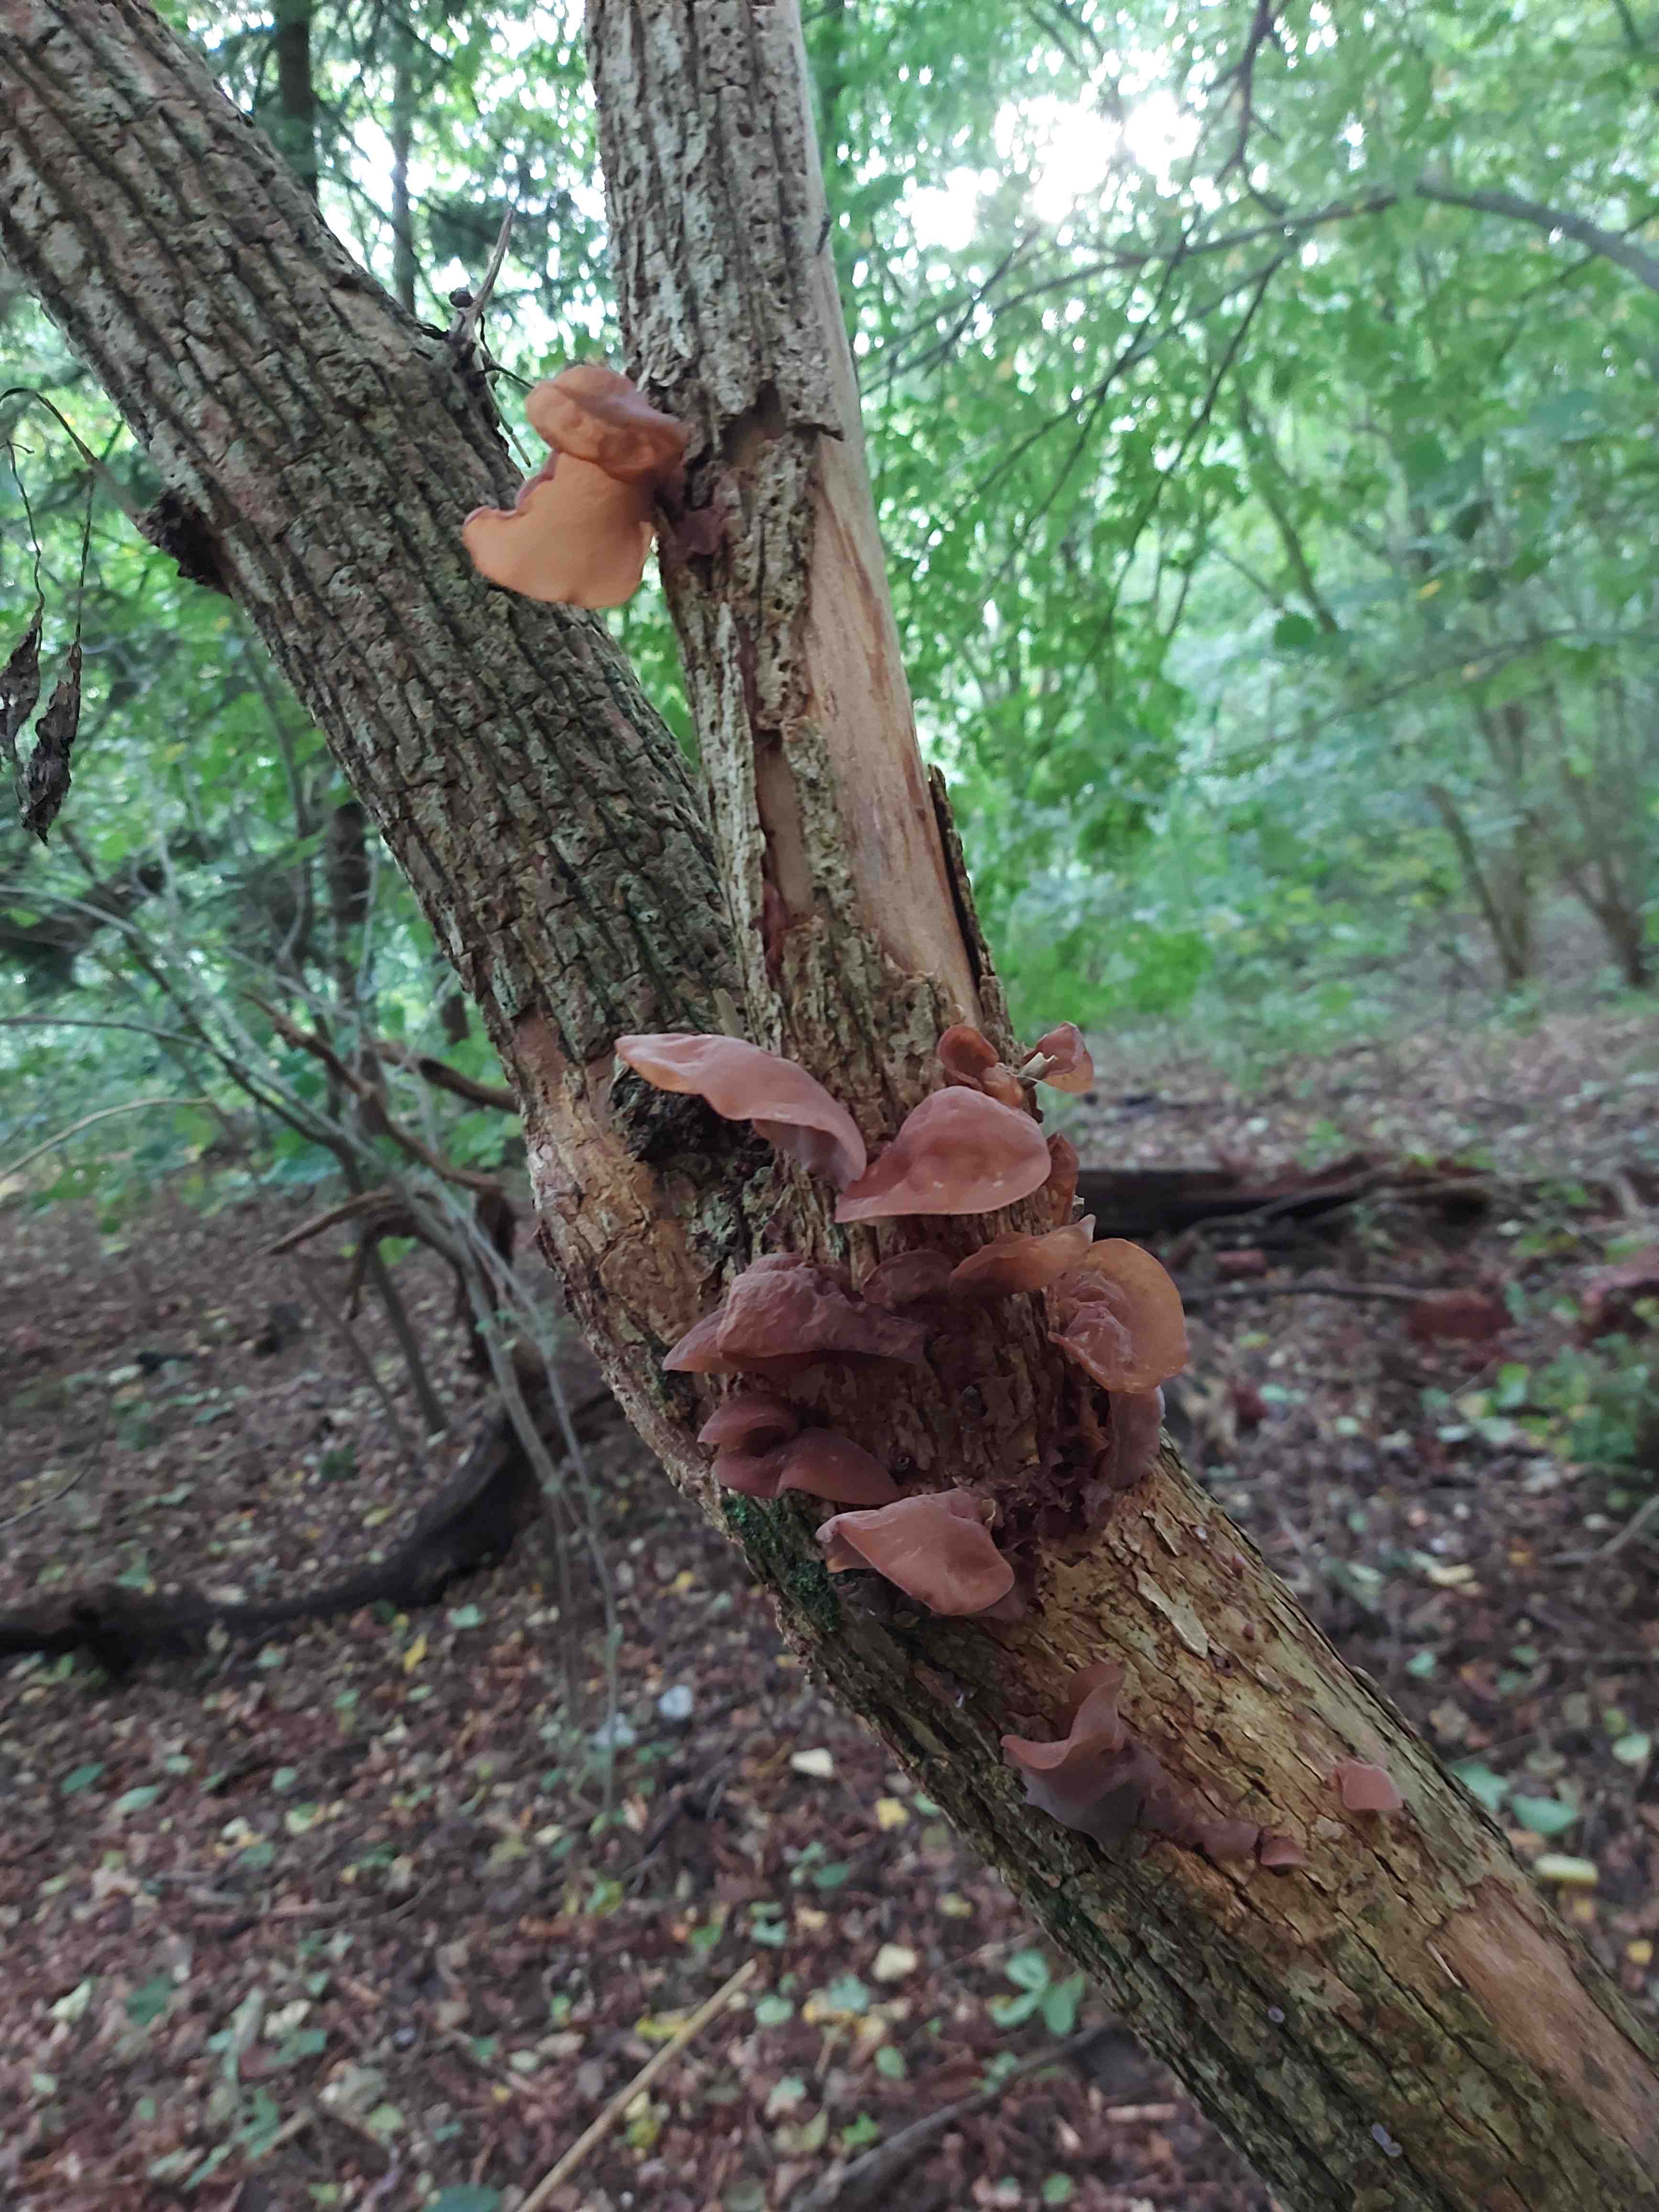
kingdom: Fungi
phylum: Basidiomycota
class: Agaricomycetes
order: Auriculariales
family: Auriculariaceae
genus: Auricularia
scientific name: Auricularia auricula-judae
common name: almindelig judasøre
